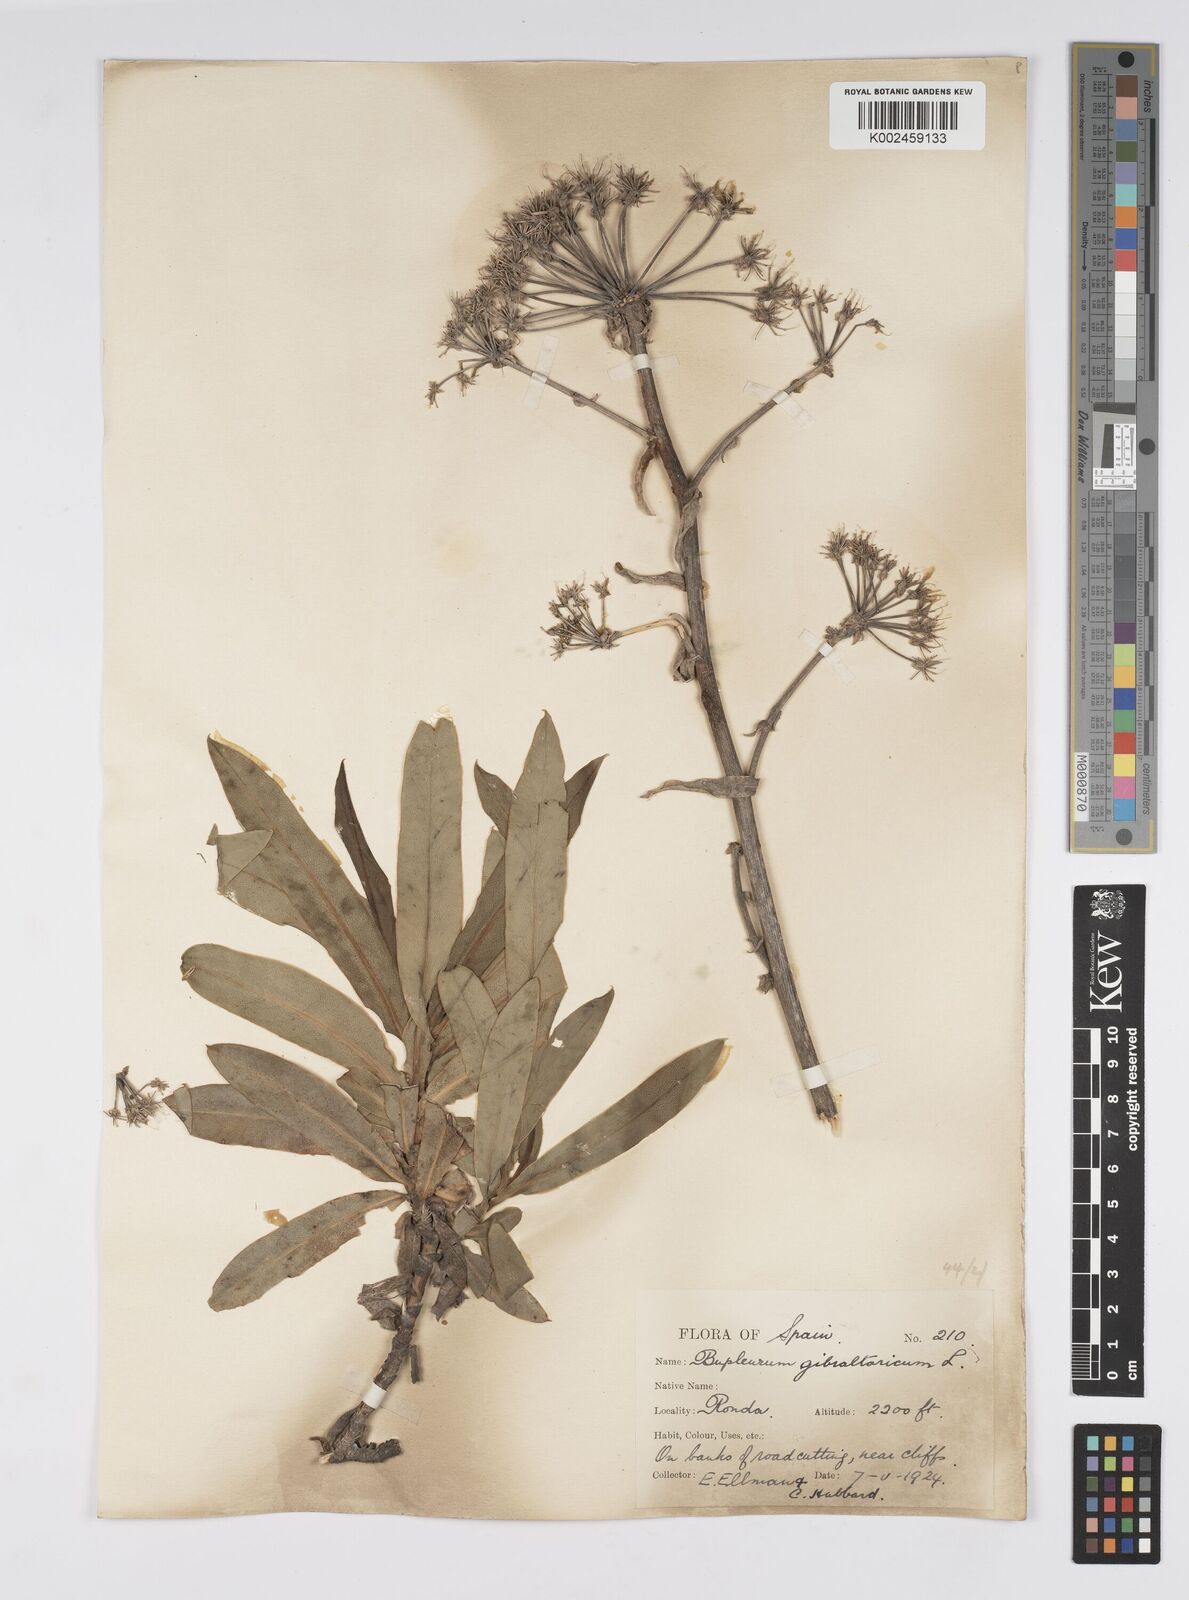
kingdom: Plantae
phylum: Tracheophyta
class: Magnoliopsida
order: Apiales
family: Apiaceae
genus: Bupleurum
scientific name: Bupleurum gibraltaricum
